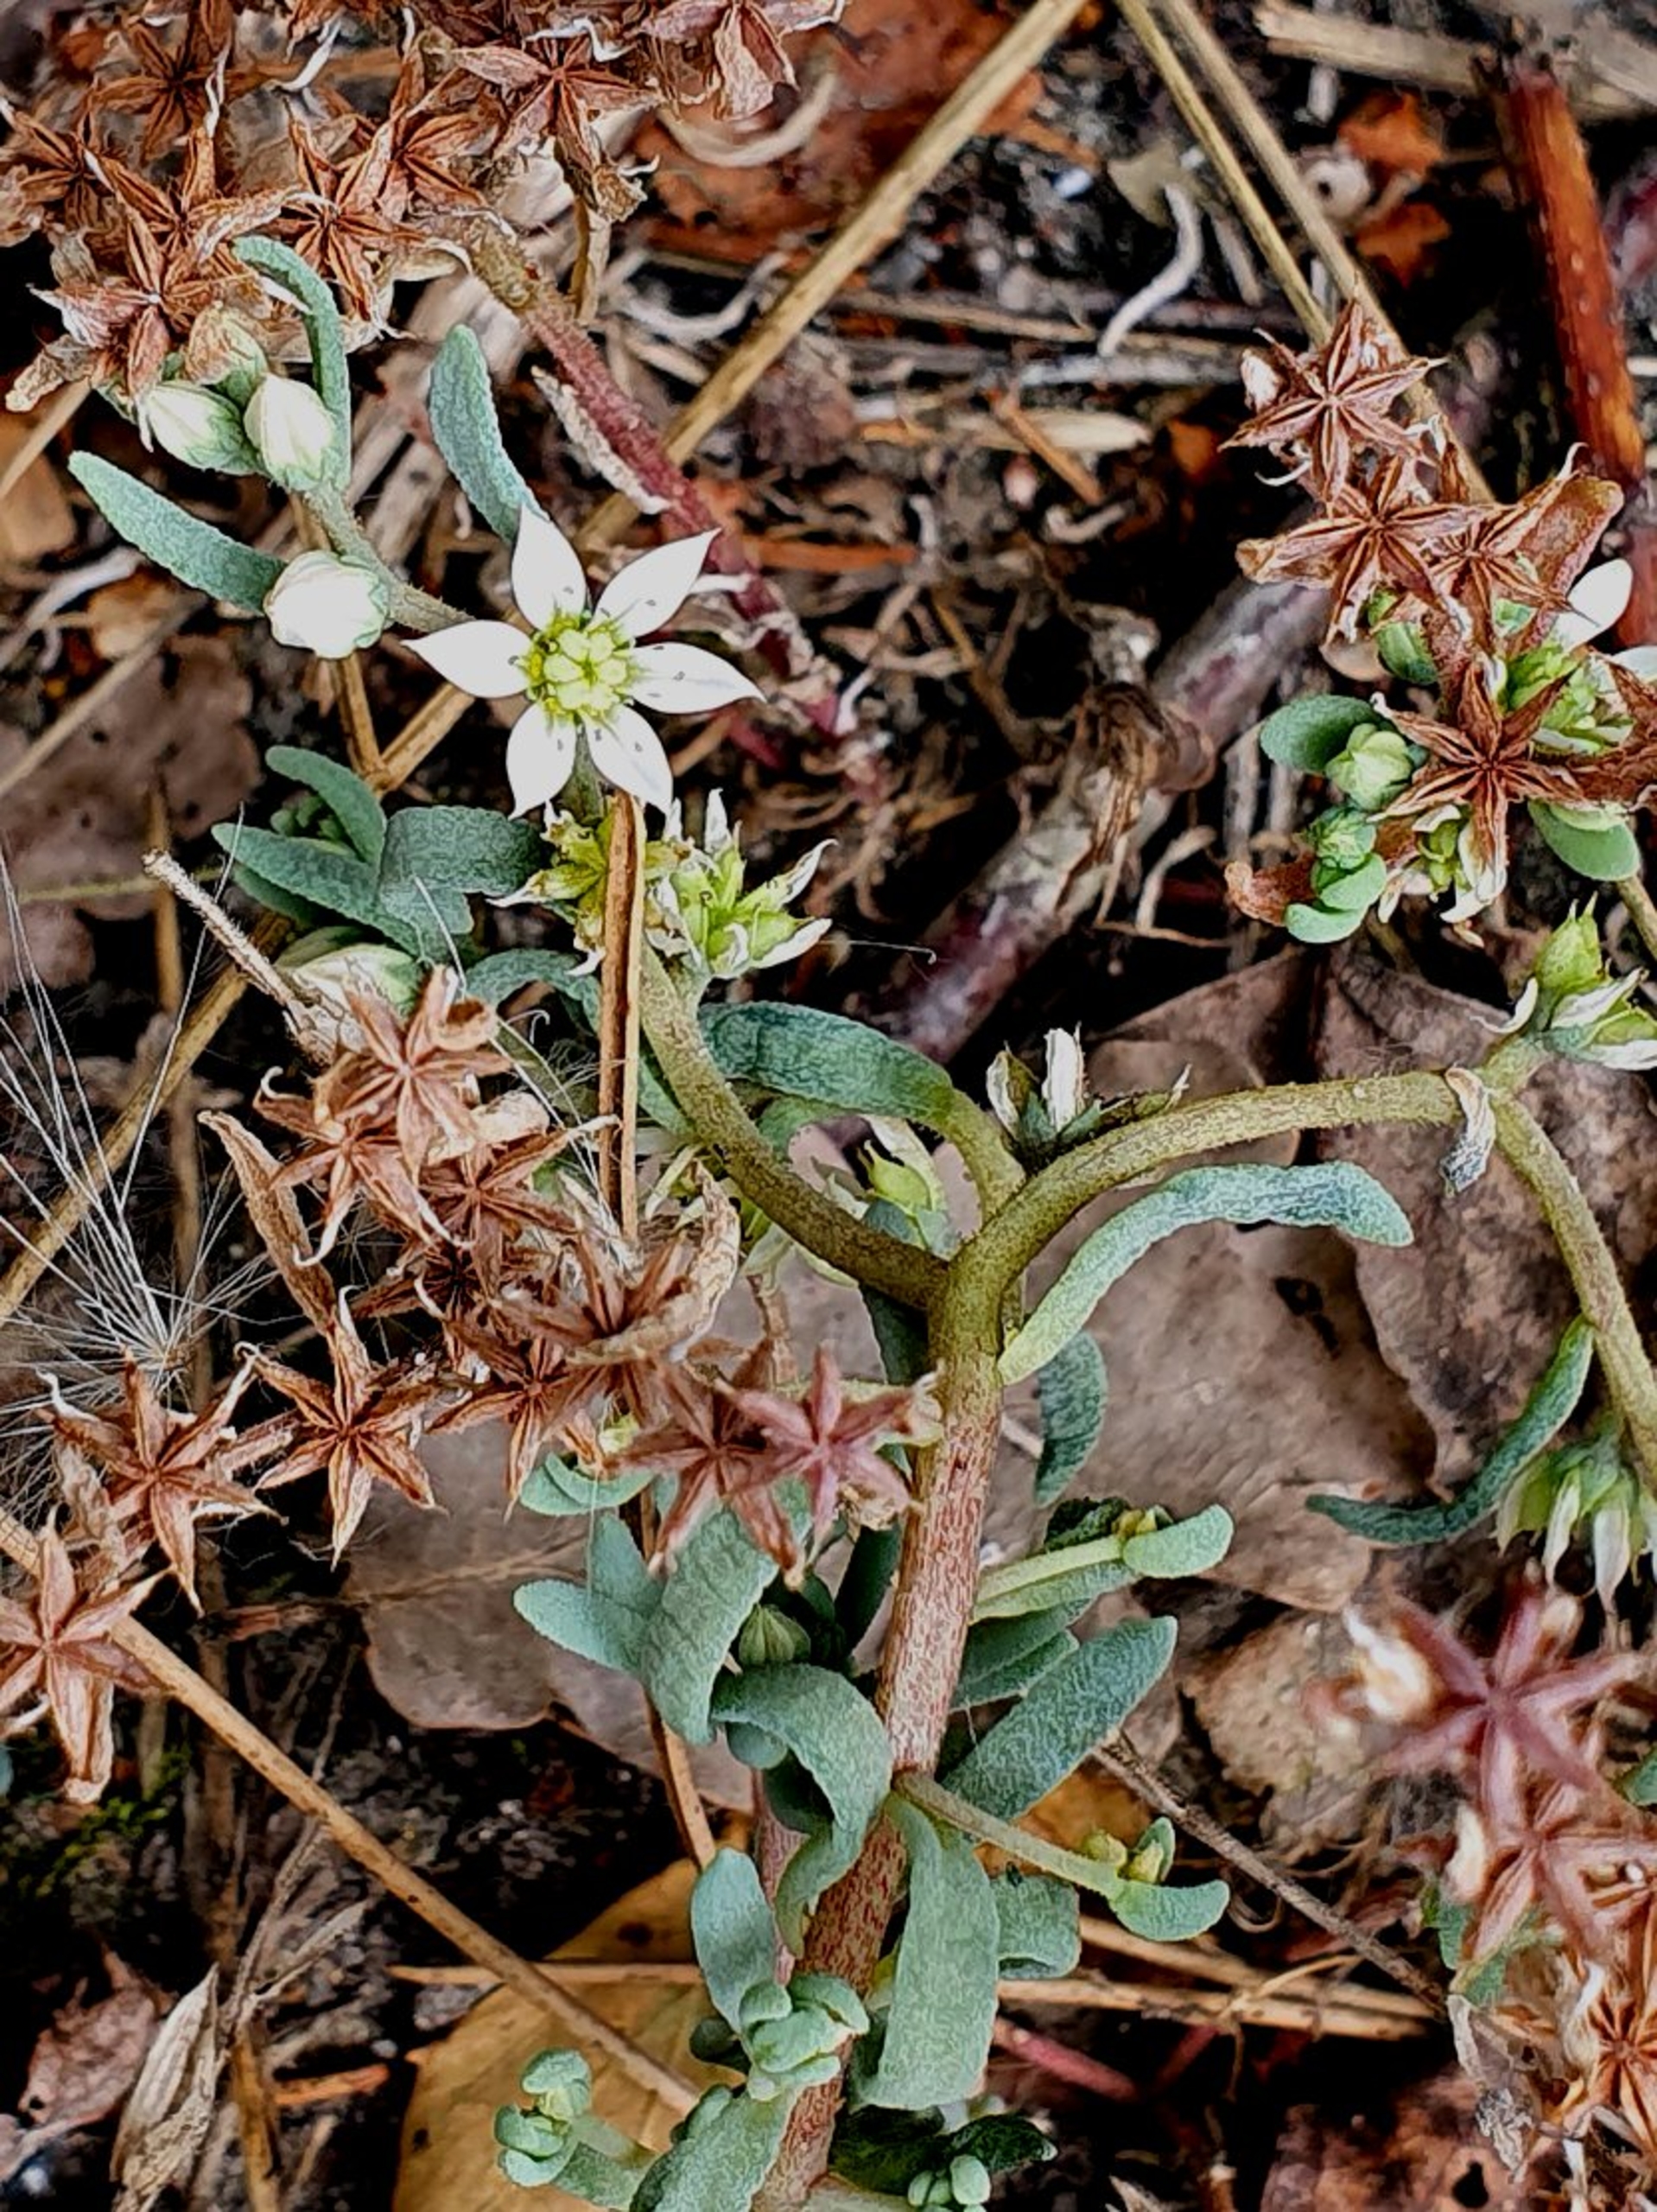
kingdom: Plantae
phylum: Tracheophyta
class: Magnoliopsida
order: Saxifragales
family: Crassulaceae
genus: Sedum
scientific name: Sedum hispanicum
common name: Bleg stenurt
